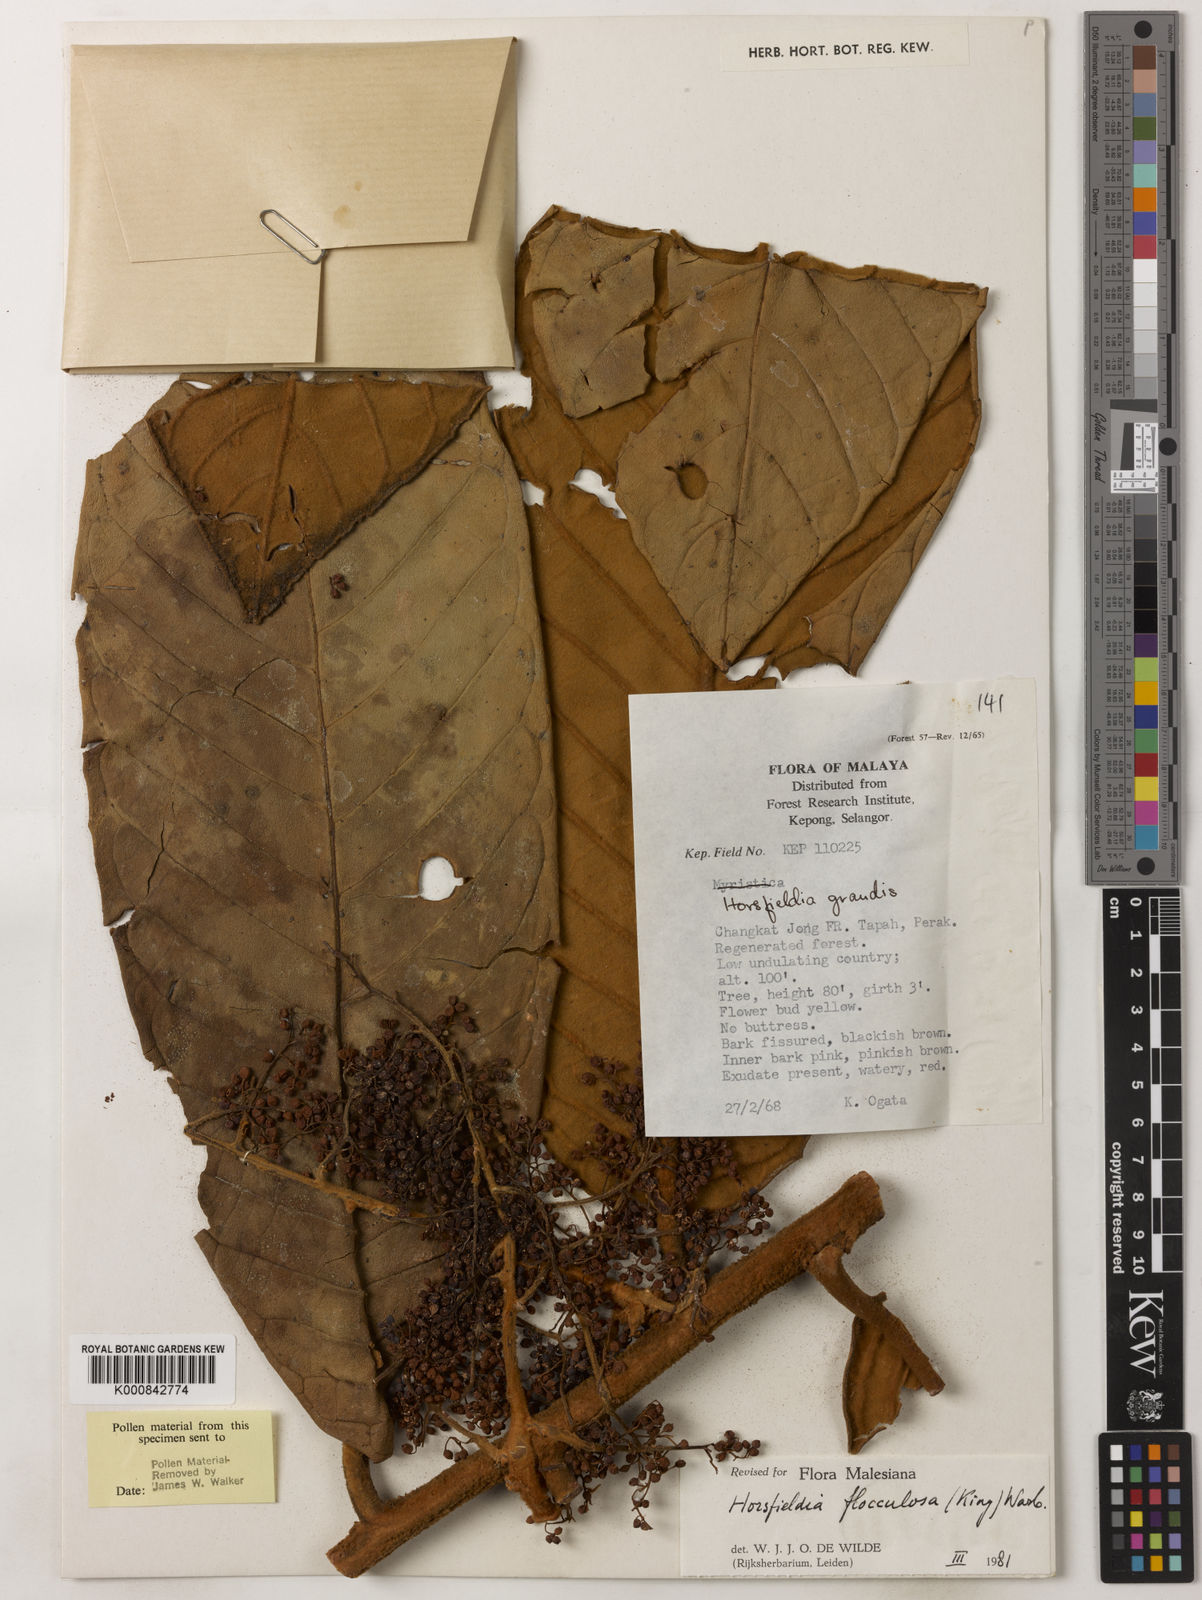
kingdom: Plantae
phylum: Tracheophyta
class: Magnoliopsida
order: Magnoliales
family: Myristicaceae
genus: Horsfieldia
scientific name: Horsfieldia flocculosa
